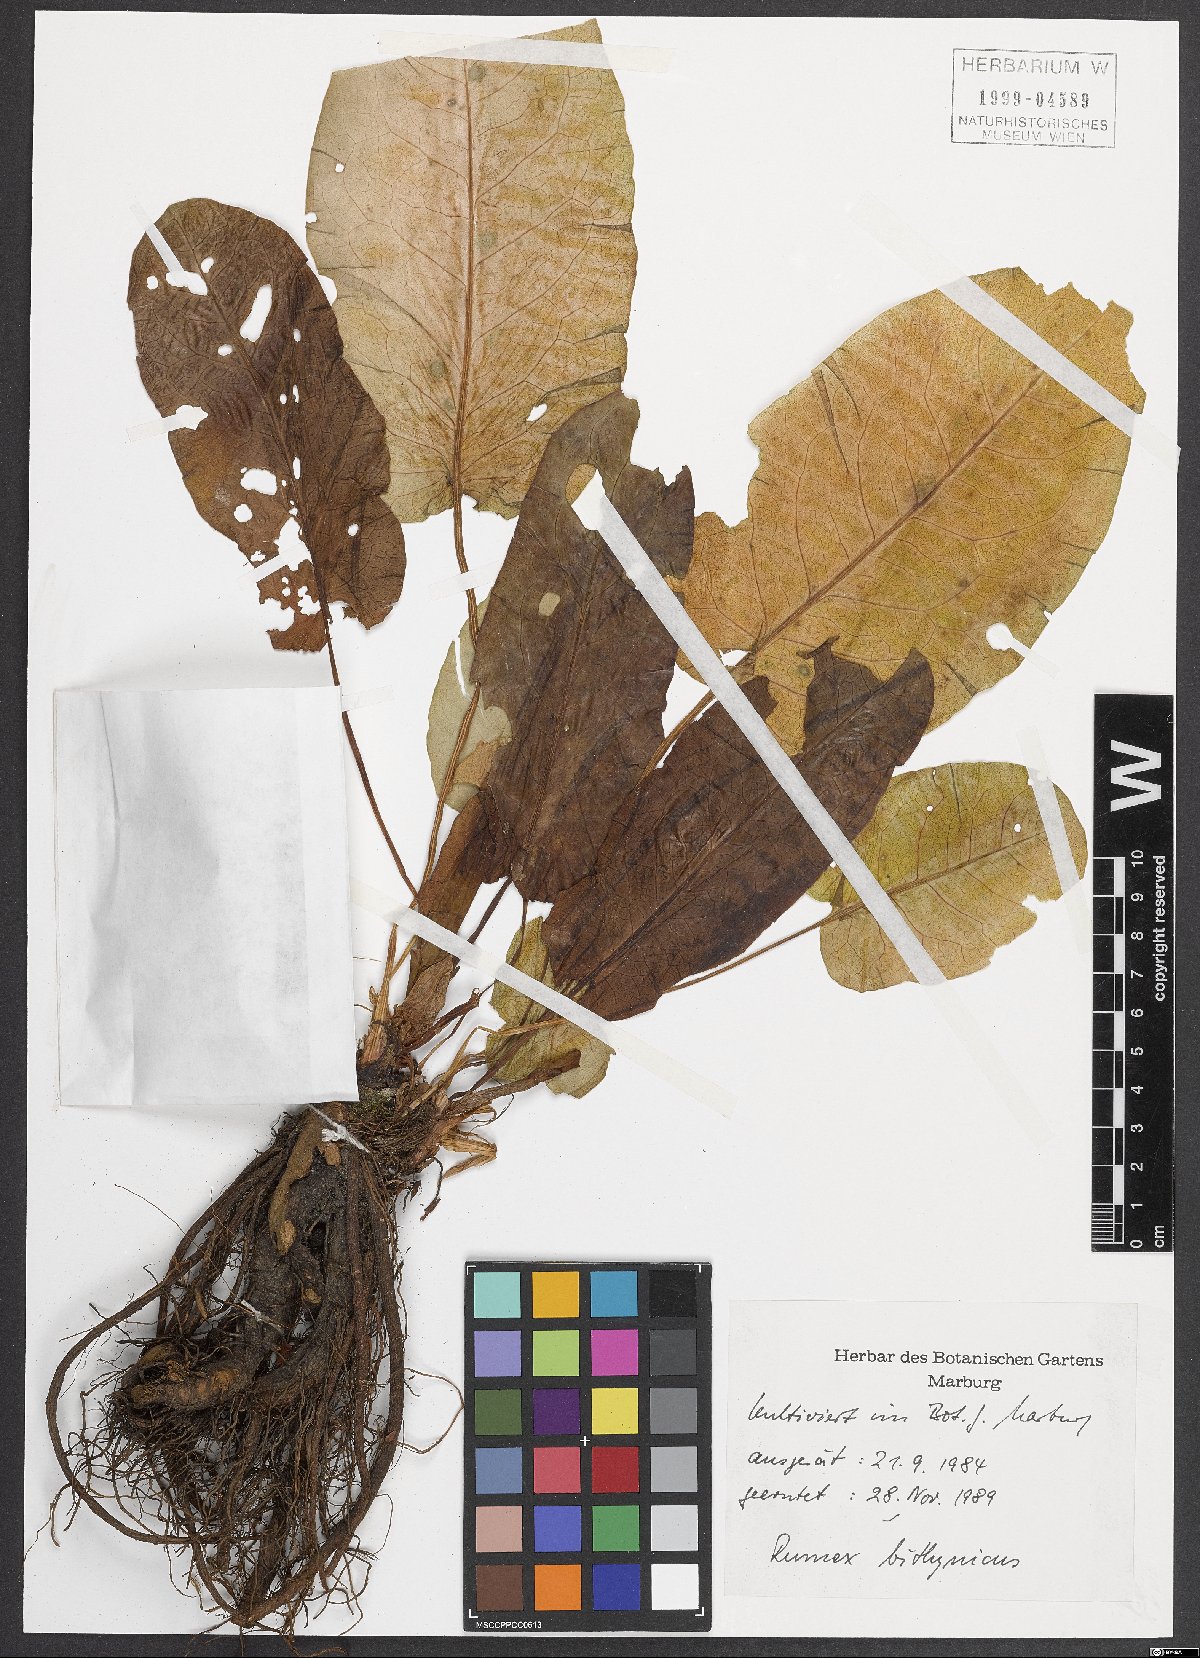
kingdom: Plantae
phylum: Tracheophyta
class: Magnoliopsida
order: Caryophyllales
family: Polygonaceae
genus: Rumex
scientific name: Rumex bithynicus
